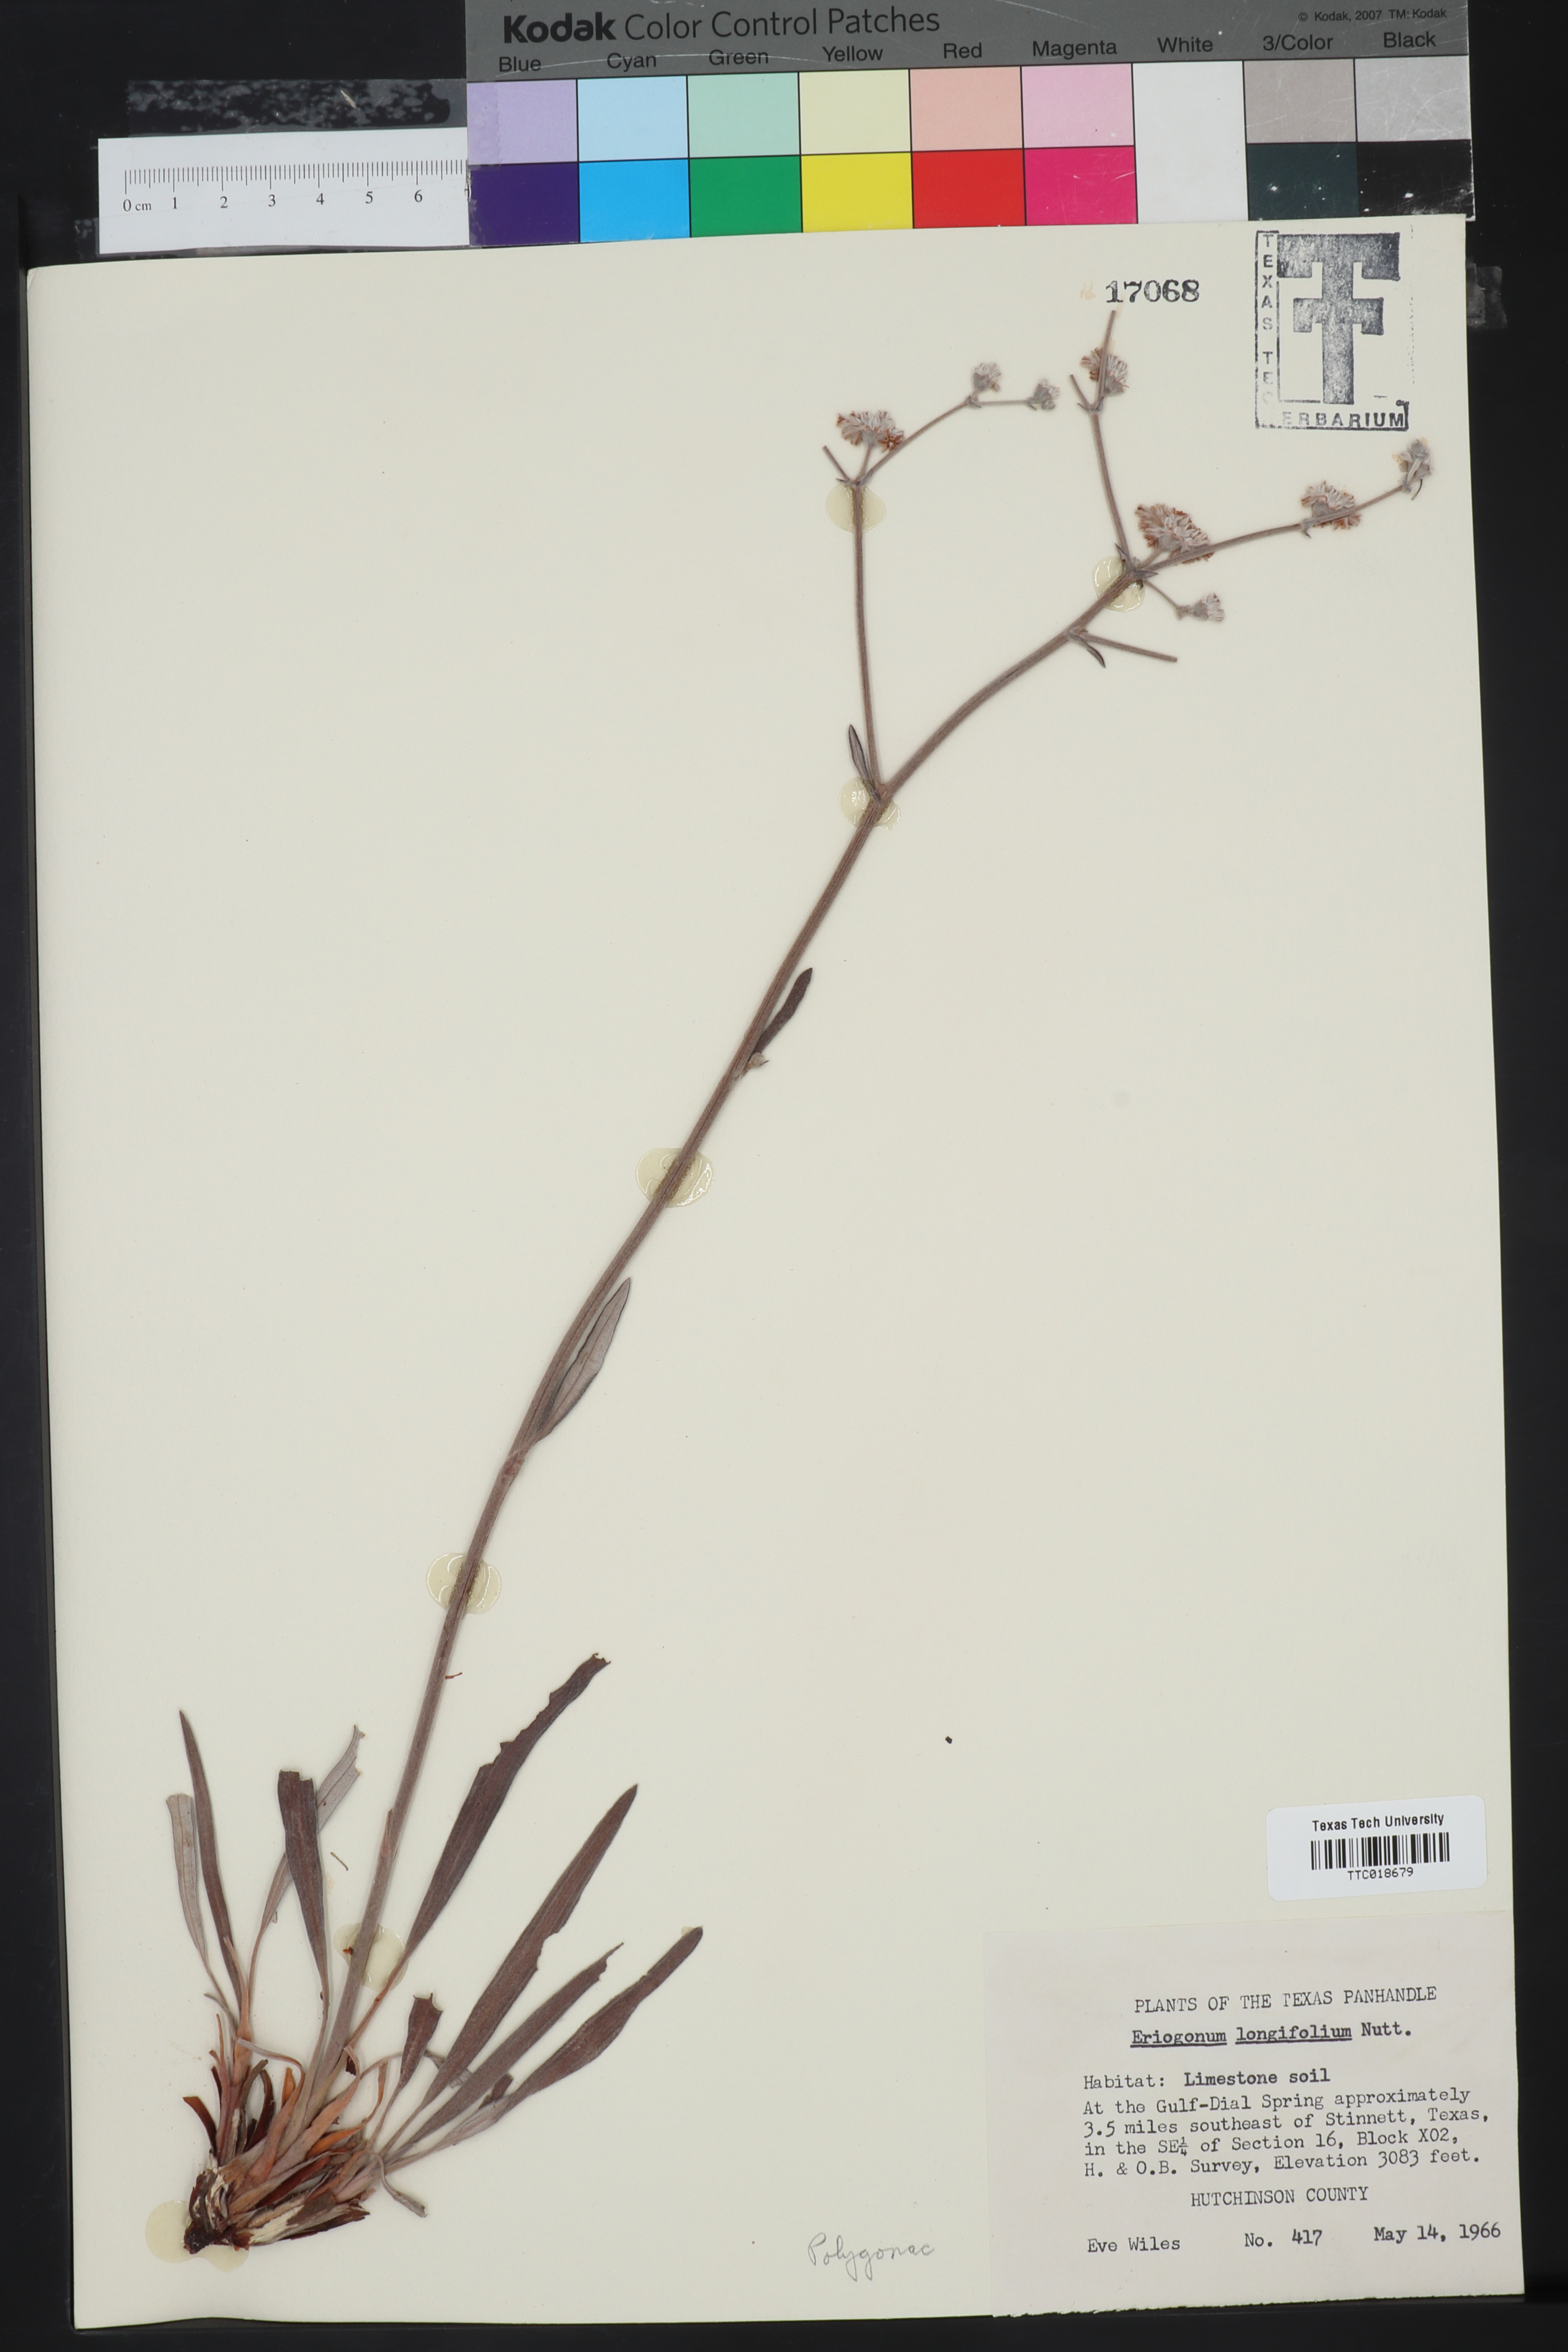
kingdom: Plantae
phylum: Tracheophyta
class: Magnoliopsida
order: Caryophyllales
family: Polygonaceae
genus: Eriogonum
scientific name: Eriogonum longifolium
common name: Longleaf wild buckwheat
